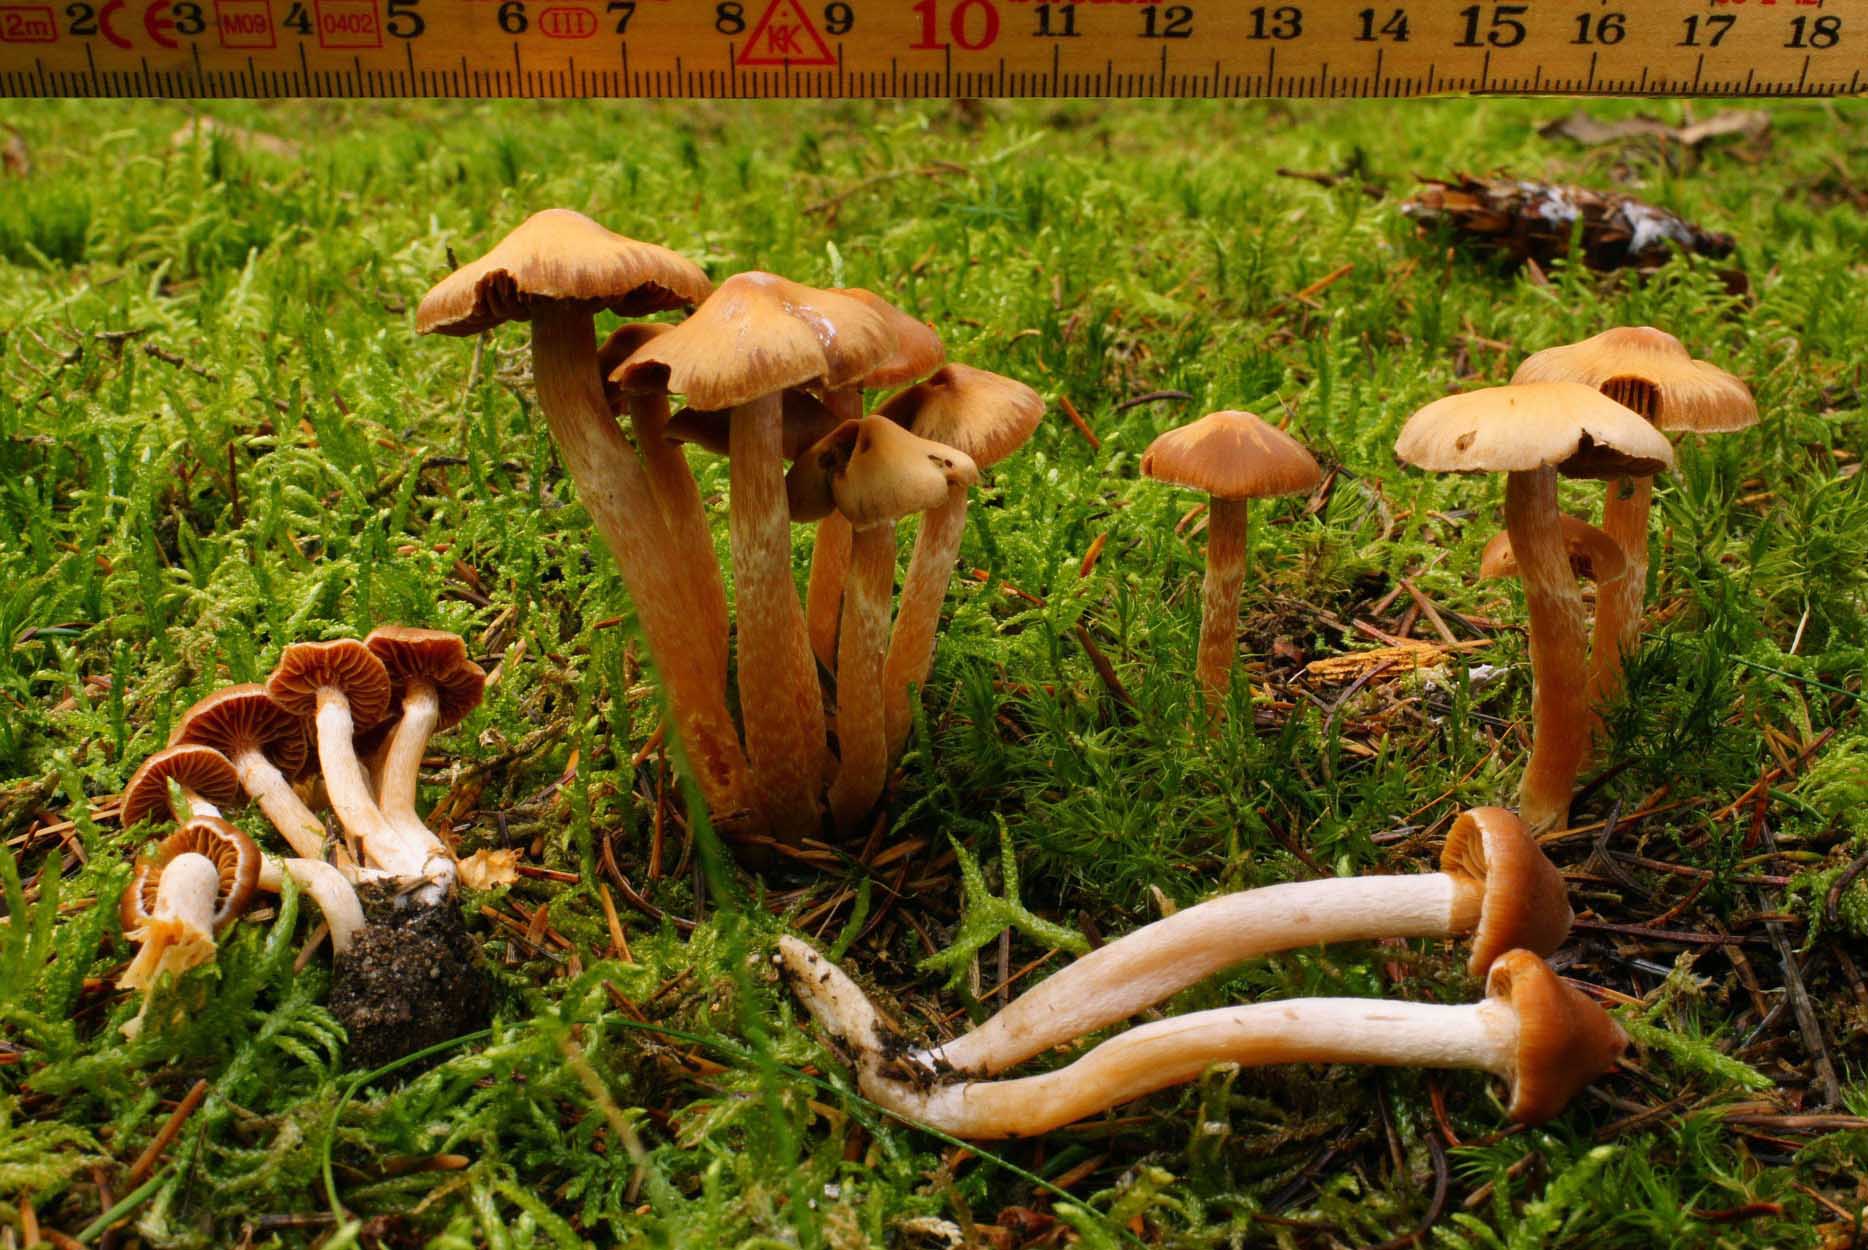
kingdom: Fungi
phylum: Basidiomycota
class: Agaricomycetes
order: Agaricales
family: Cortinariaceae
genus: Cortinarius
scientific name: Cortinarius parvannulatus
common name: krave-slørhat
